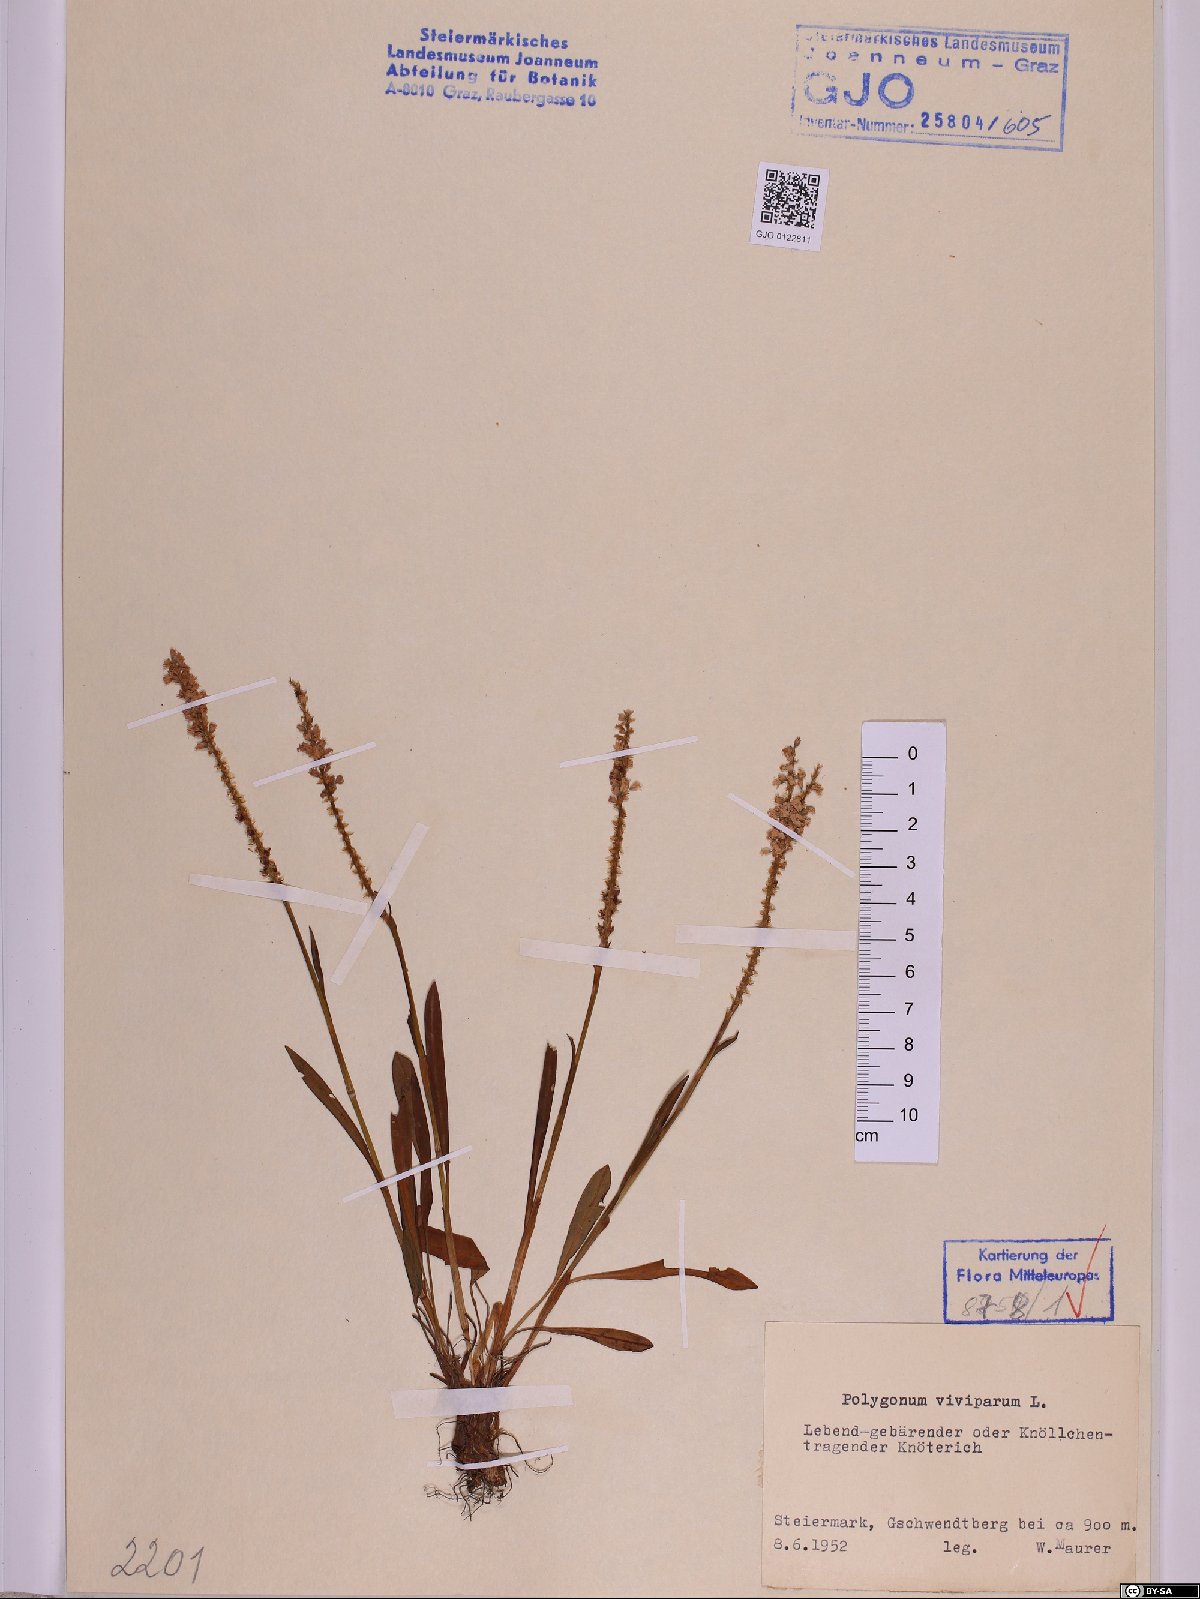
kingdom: Plantae
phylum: Tracheophyta
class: Magnoliopsida
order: Caryophyllales
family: Polygonaceae
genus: Bistorta
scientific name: Bistorta vivipara
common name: Alpine bistort
